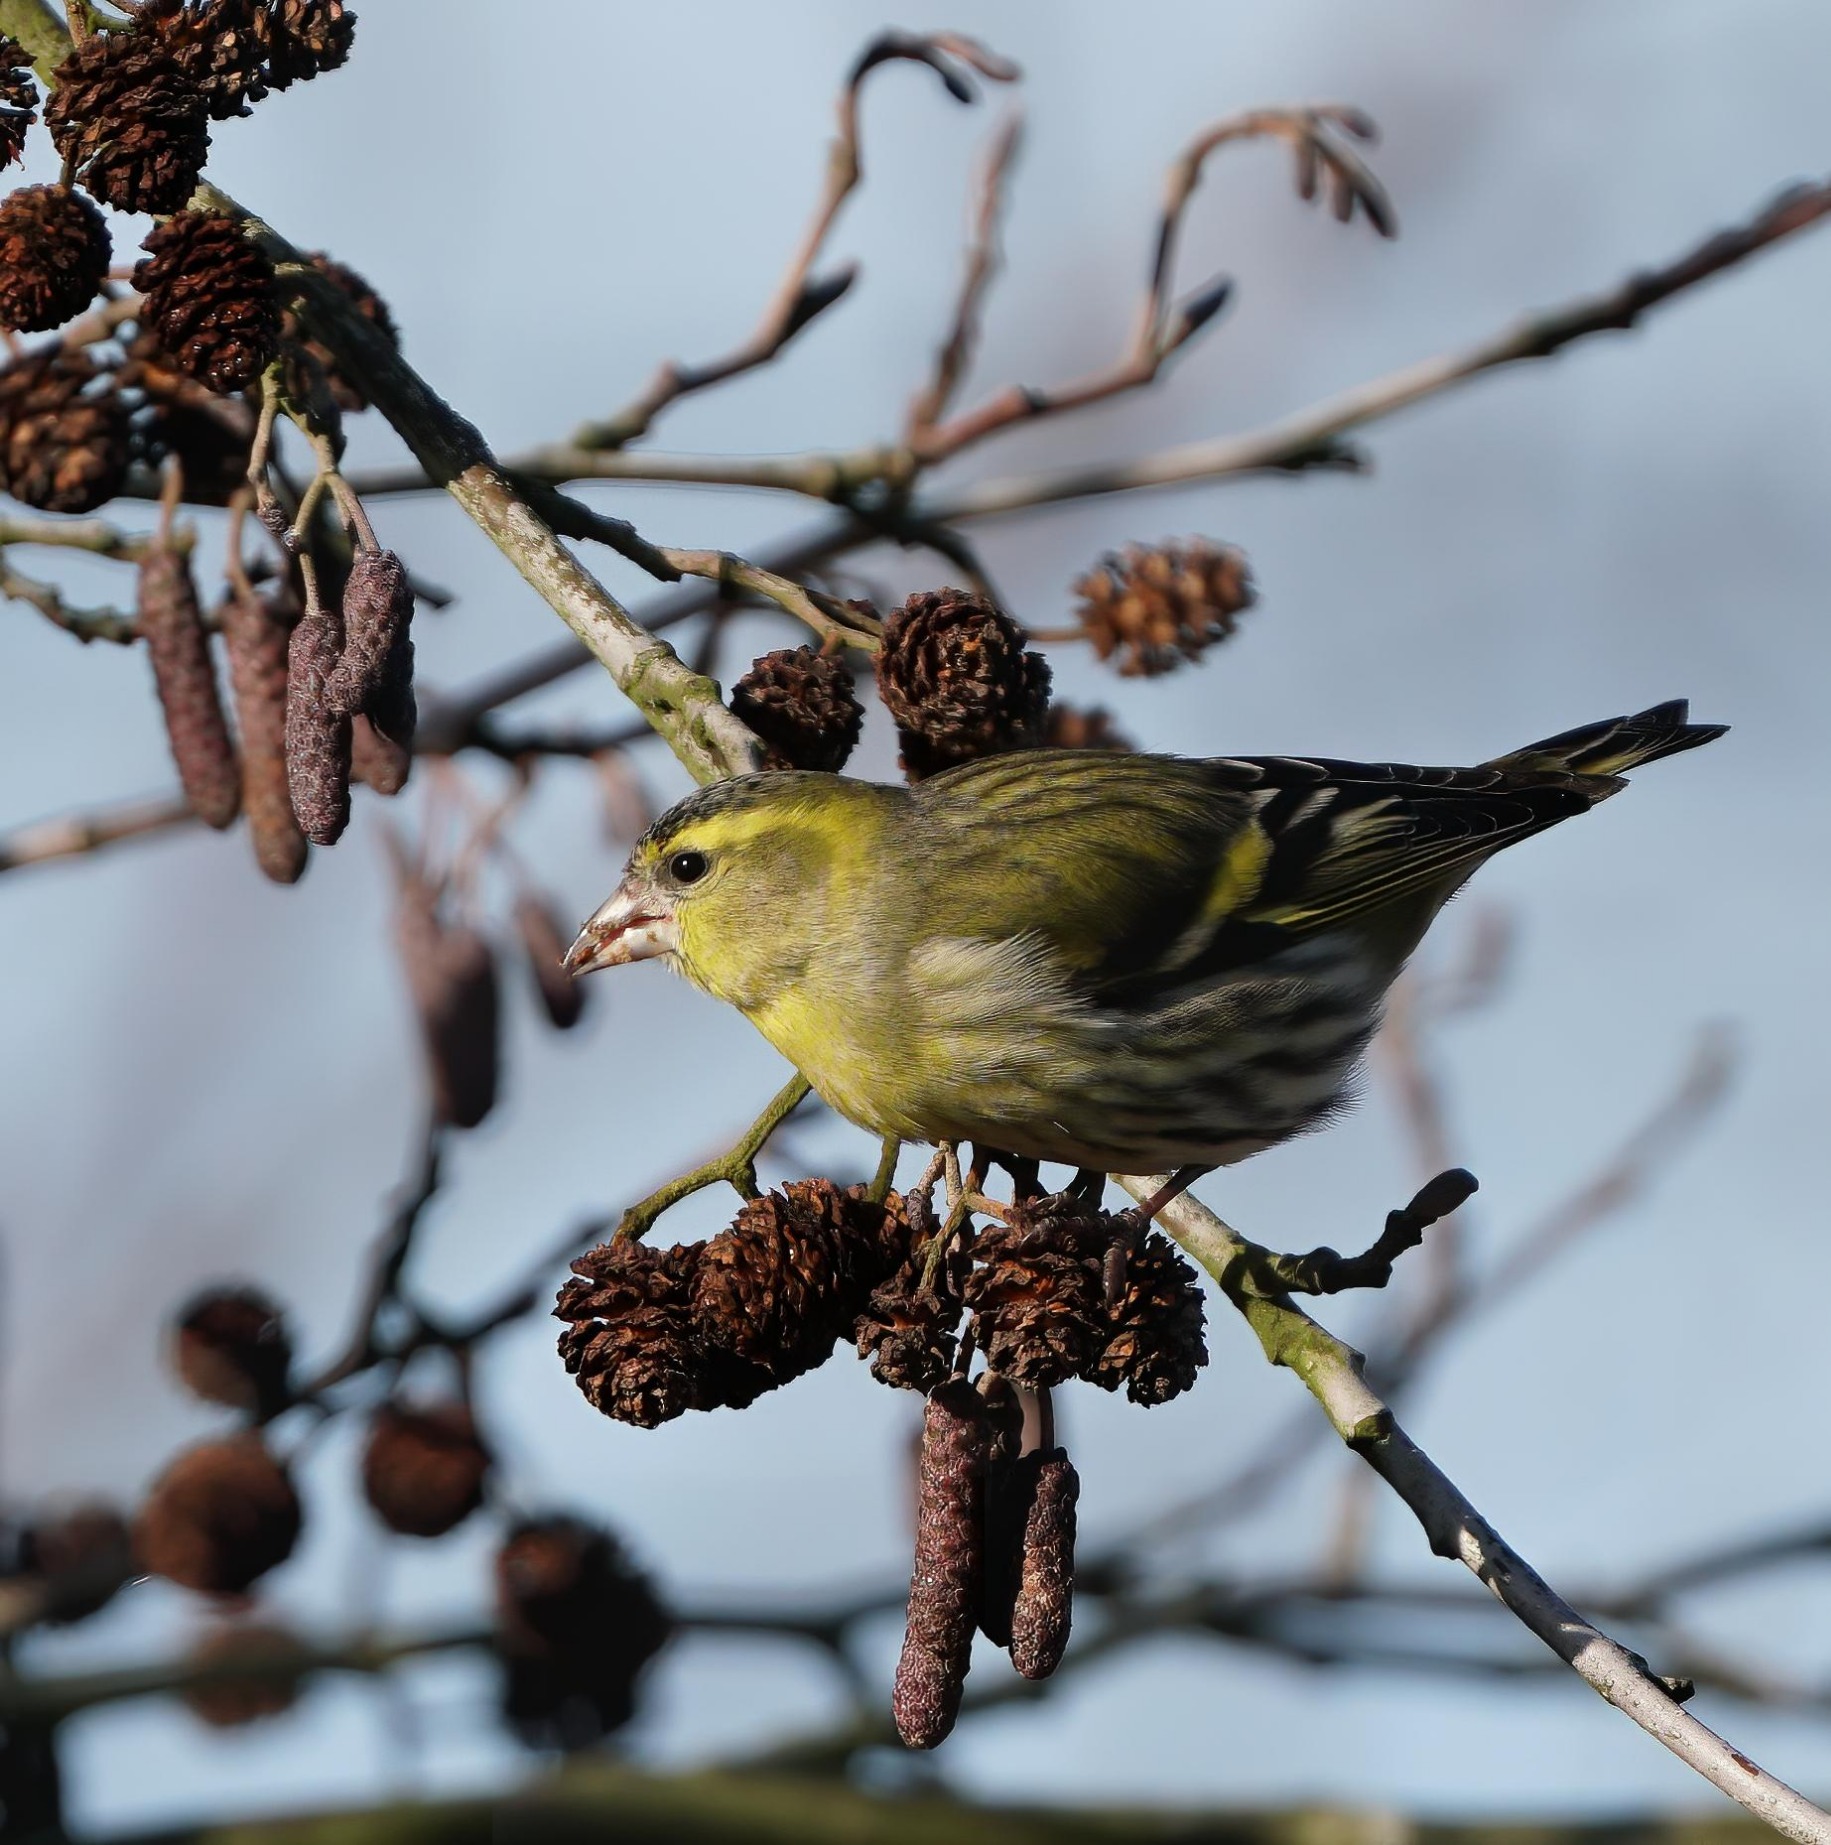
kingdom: Animalia
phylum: Chordata
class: Aves
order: Passeriformes
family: Fringillidae
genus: Spinus
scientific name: Spinus spinus
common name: Grønsisken
